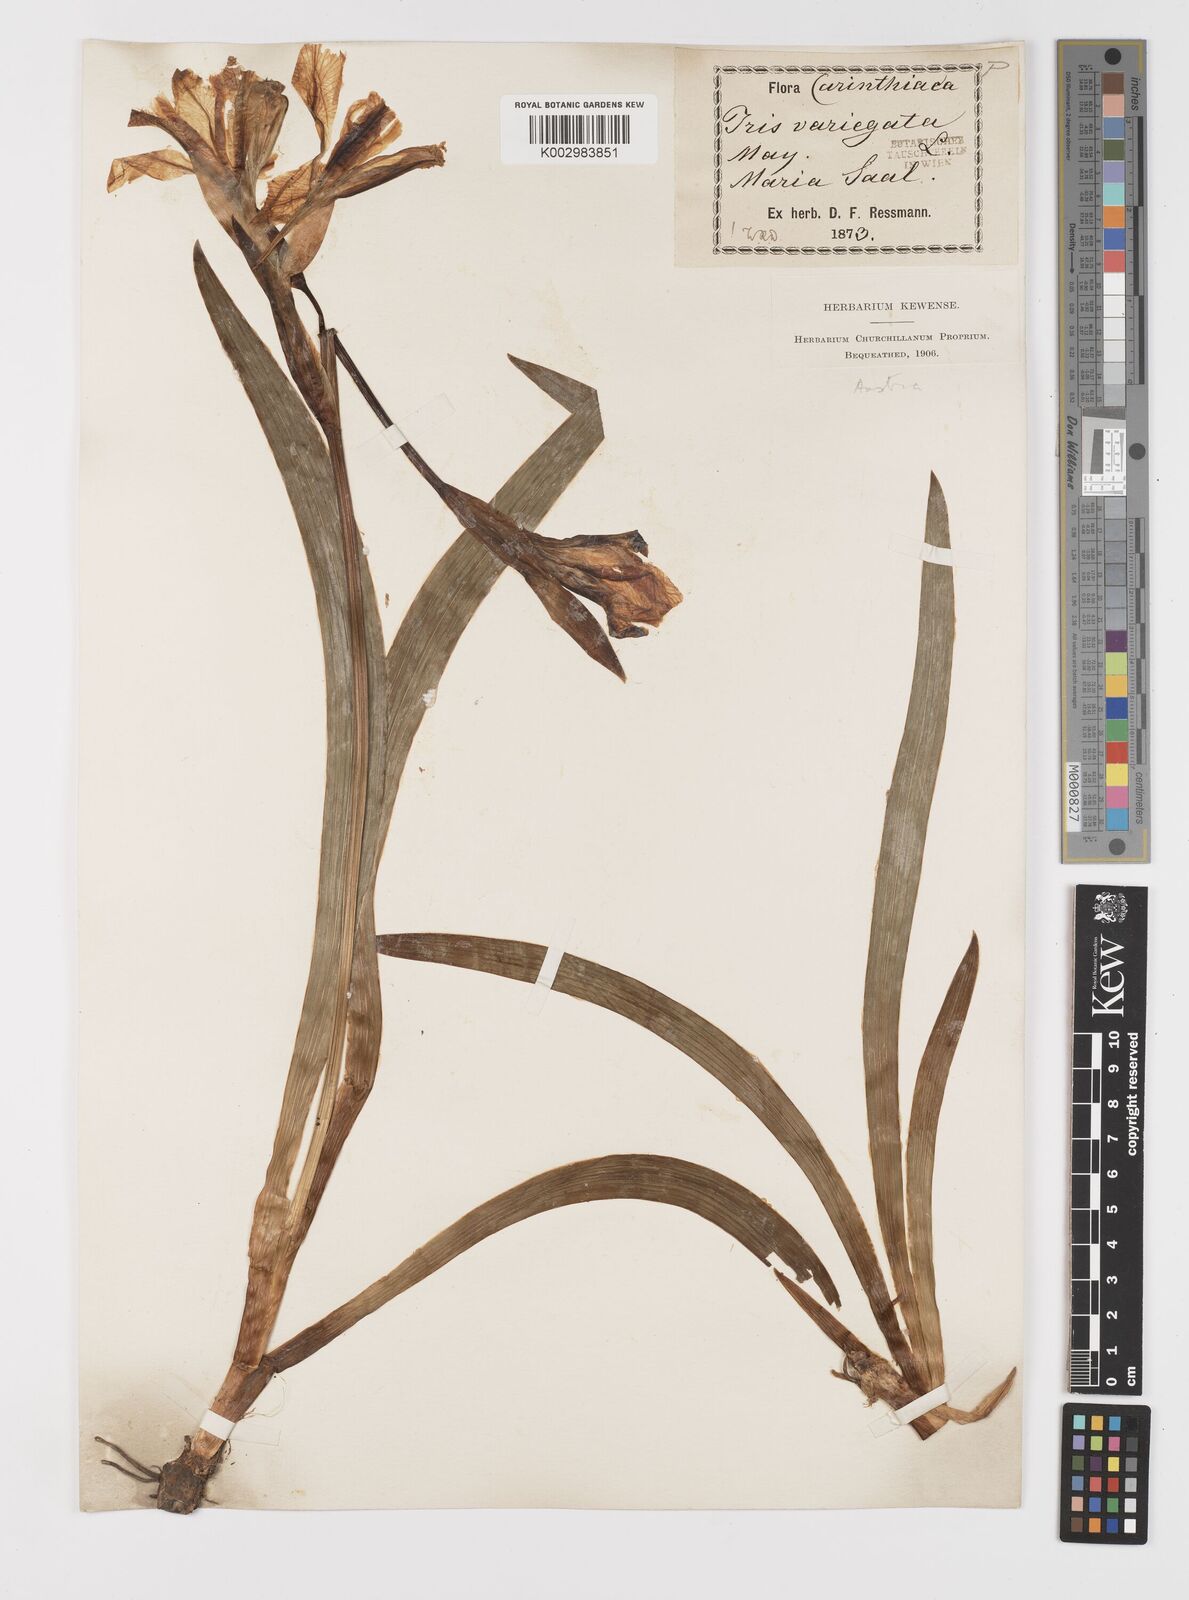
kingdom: Plantae
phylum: Tracheophyta
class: Liliopsida
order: Asparagales
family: Iridaceae
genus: Iris
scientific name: Iris variegata
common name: Hungarian iris
